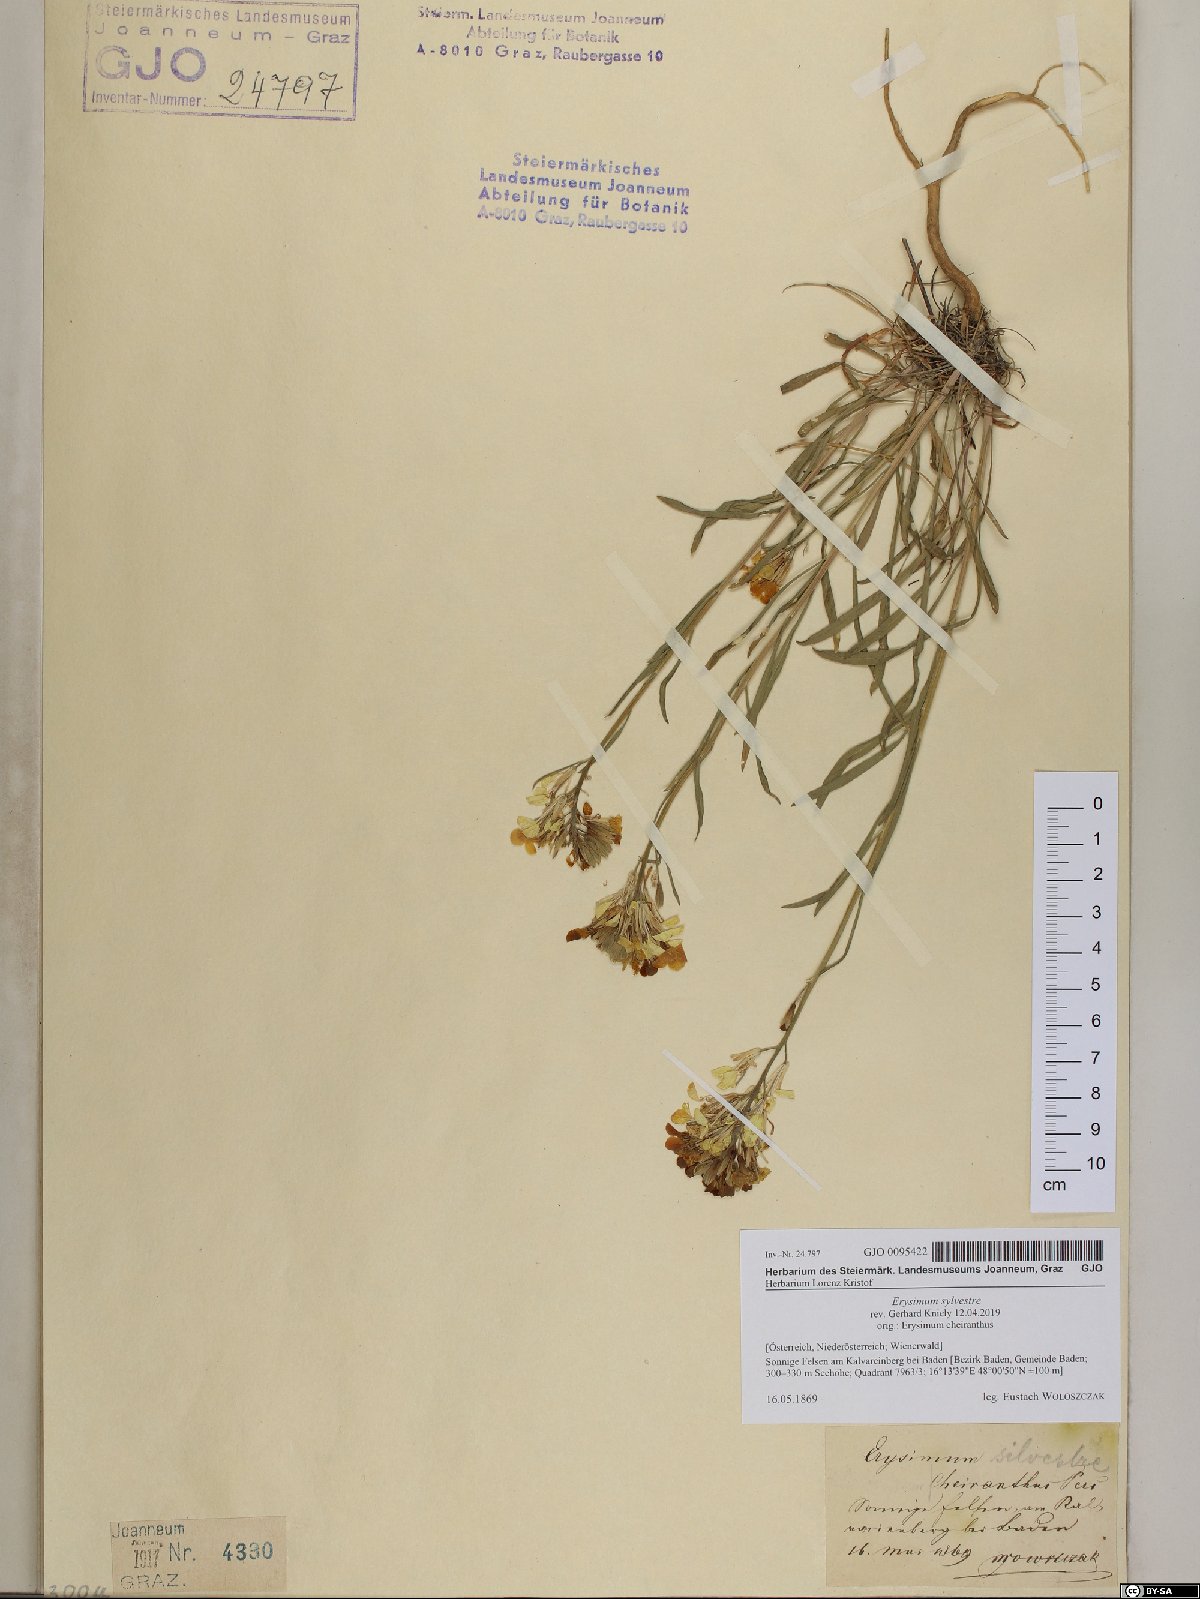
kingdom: Plantae
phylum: Tracheophyta
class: Magnoliopsida
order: Brassicales
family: Brassicaceae
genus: Erysimum
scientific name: Erysimum sylvestre
